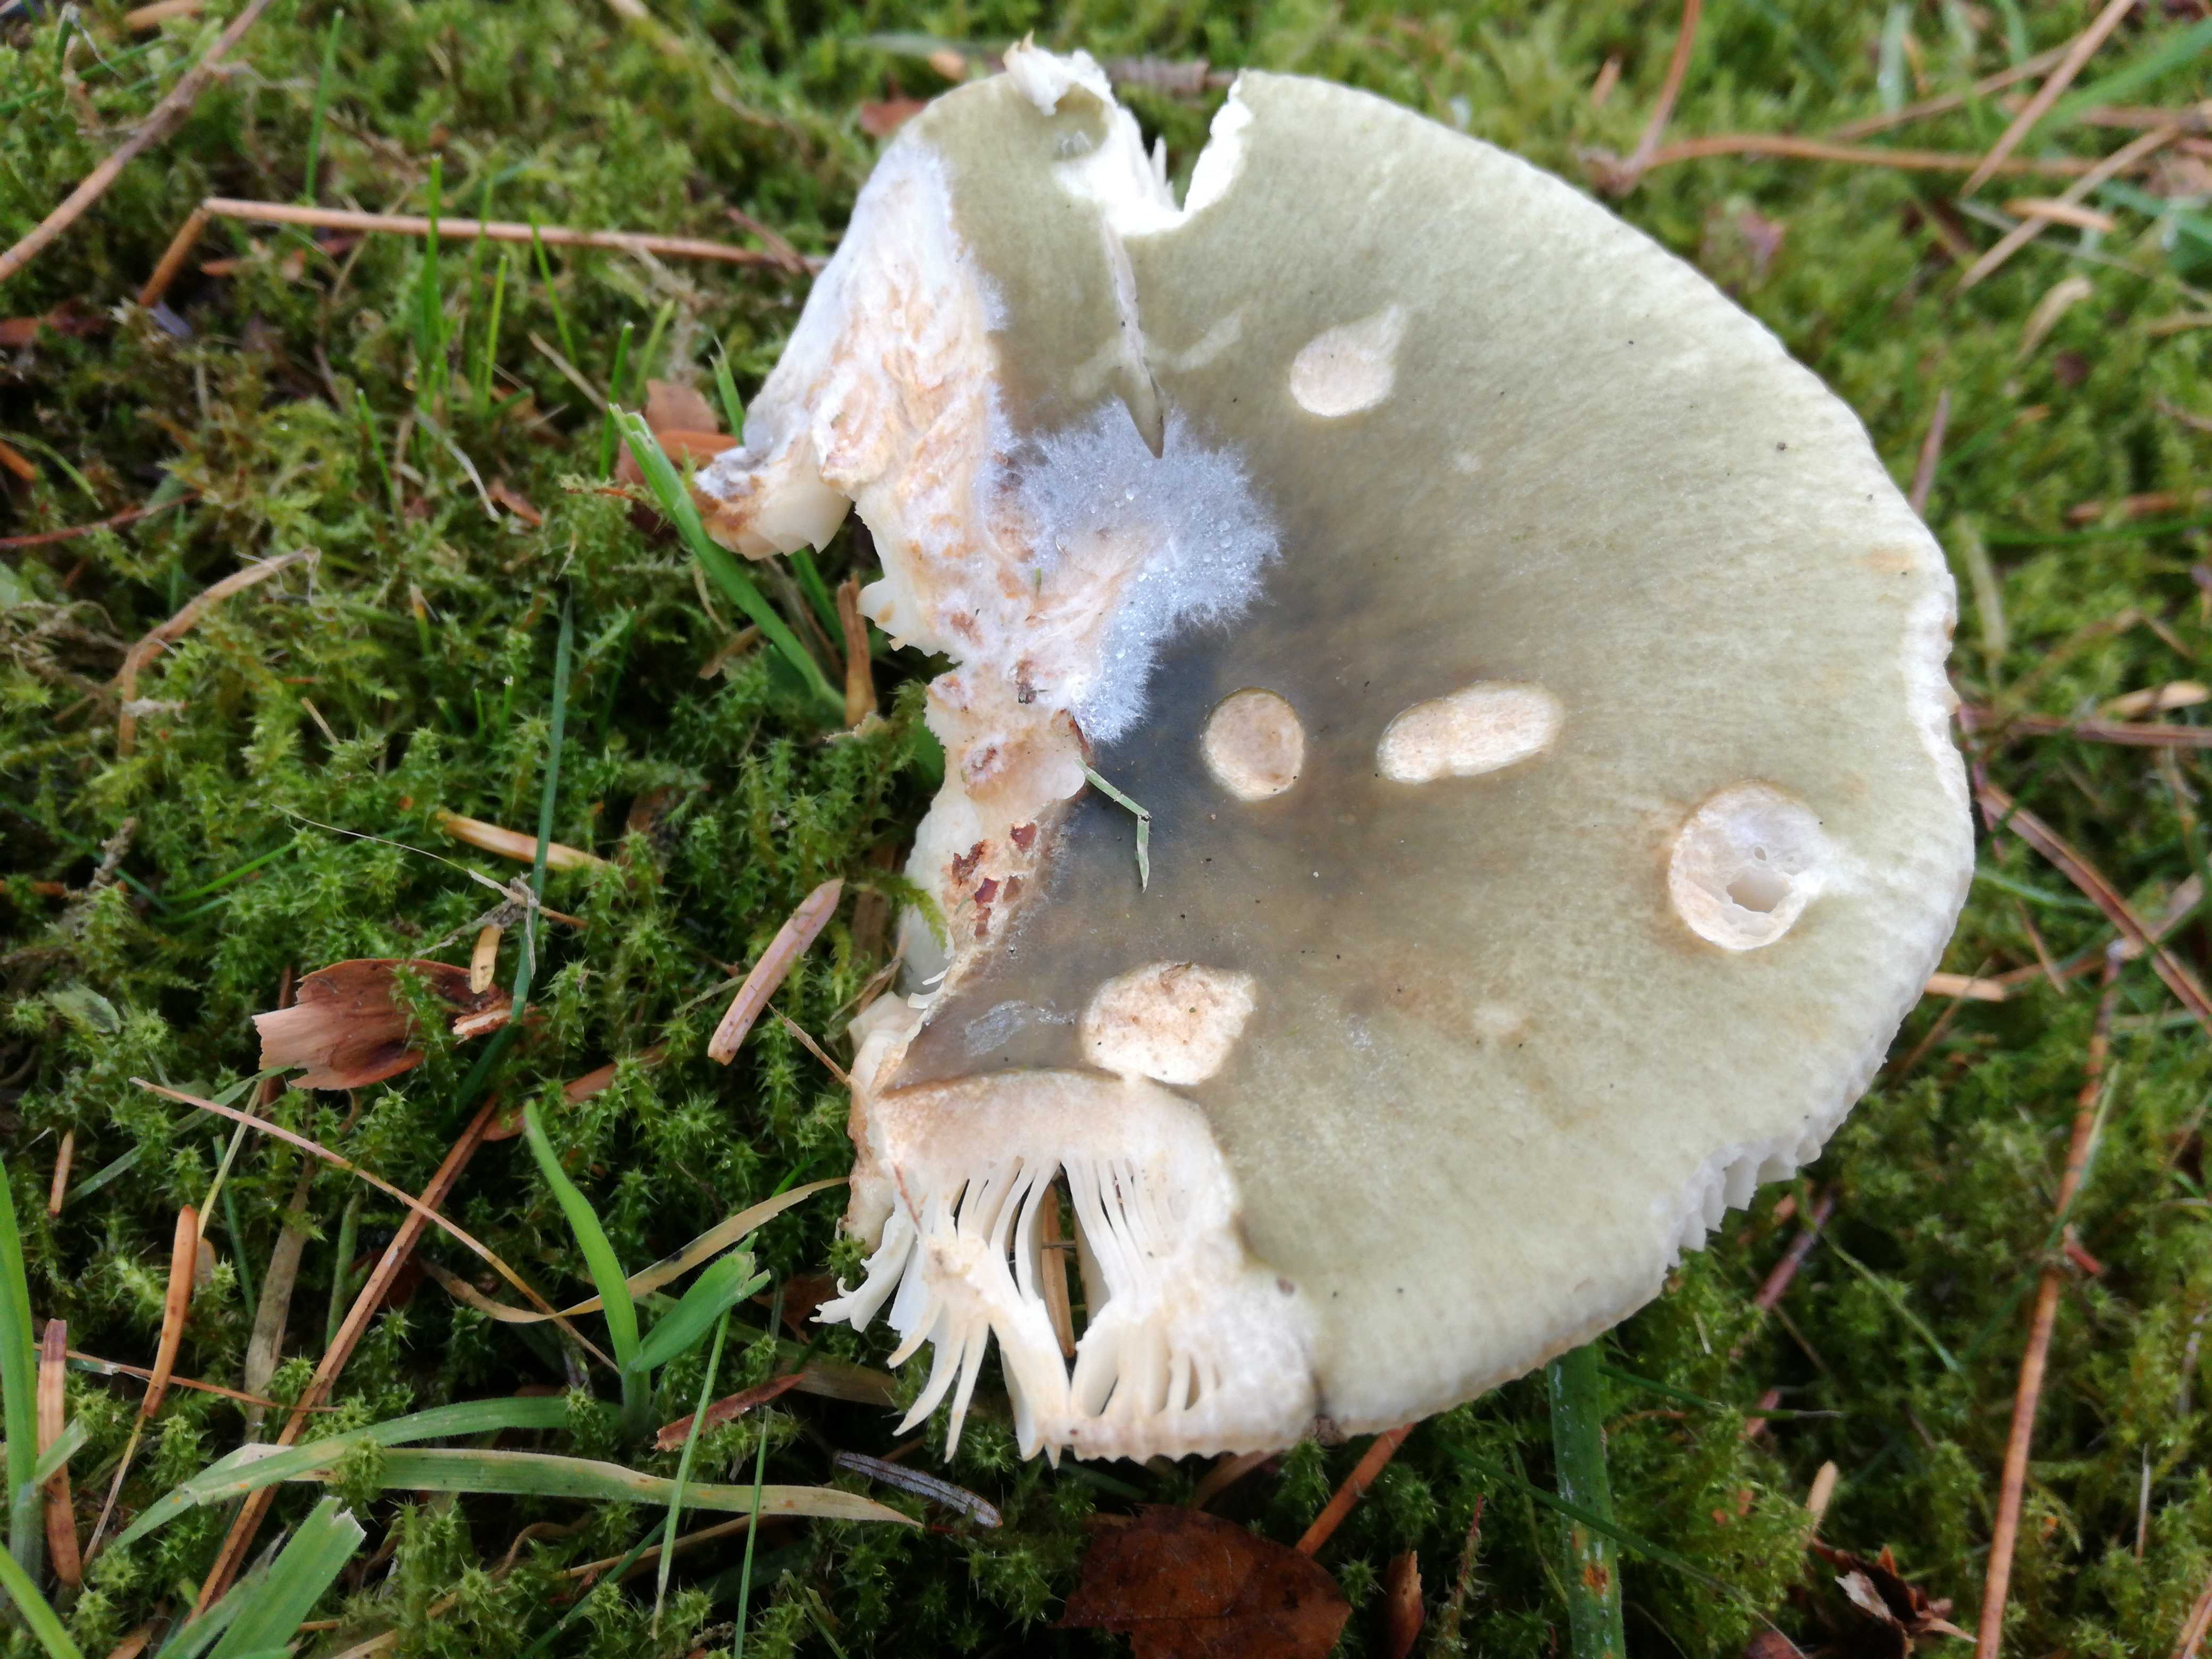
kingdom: Fungi
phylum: Basidiomycota
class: Agaricomycetes
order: Russulales
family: Russulaceae
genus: Russula
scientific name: Russula aeruginea
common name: græsgrøn skørhat
